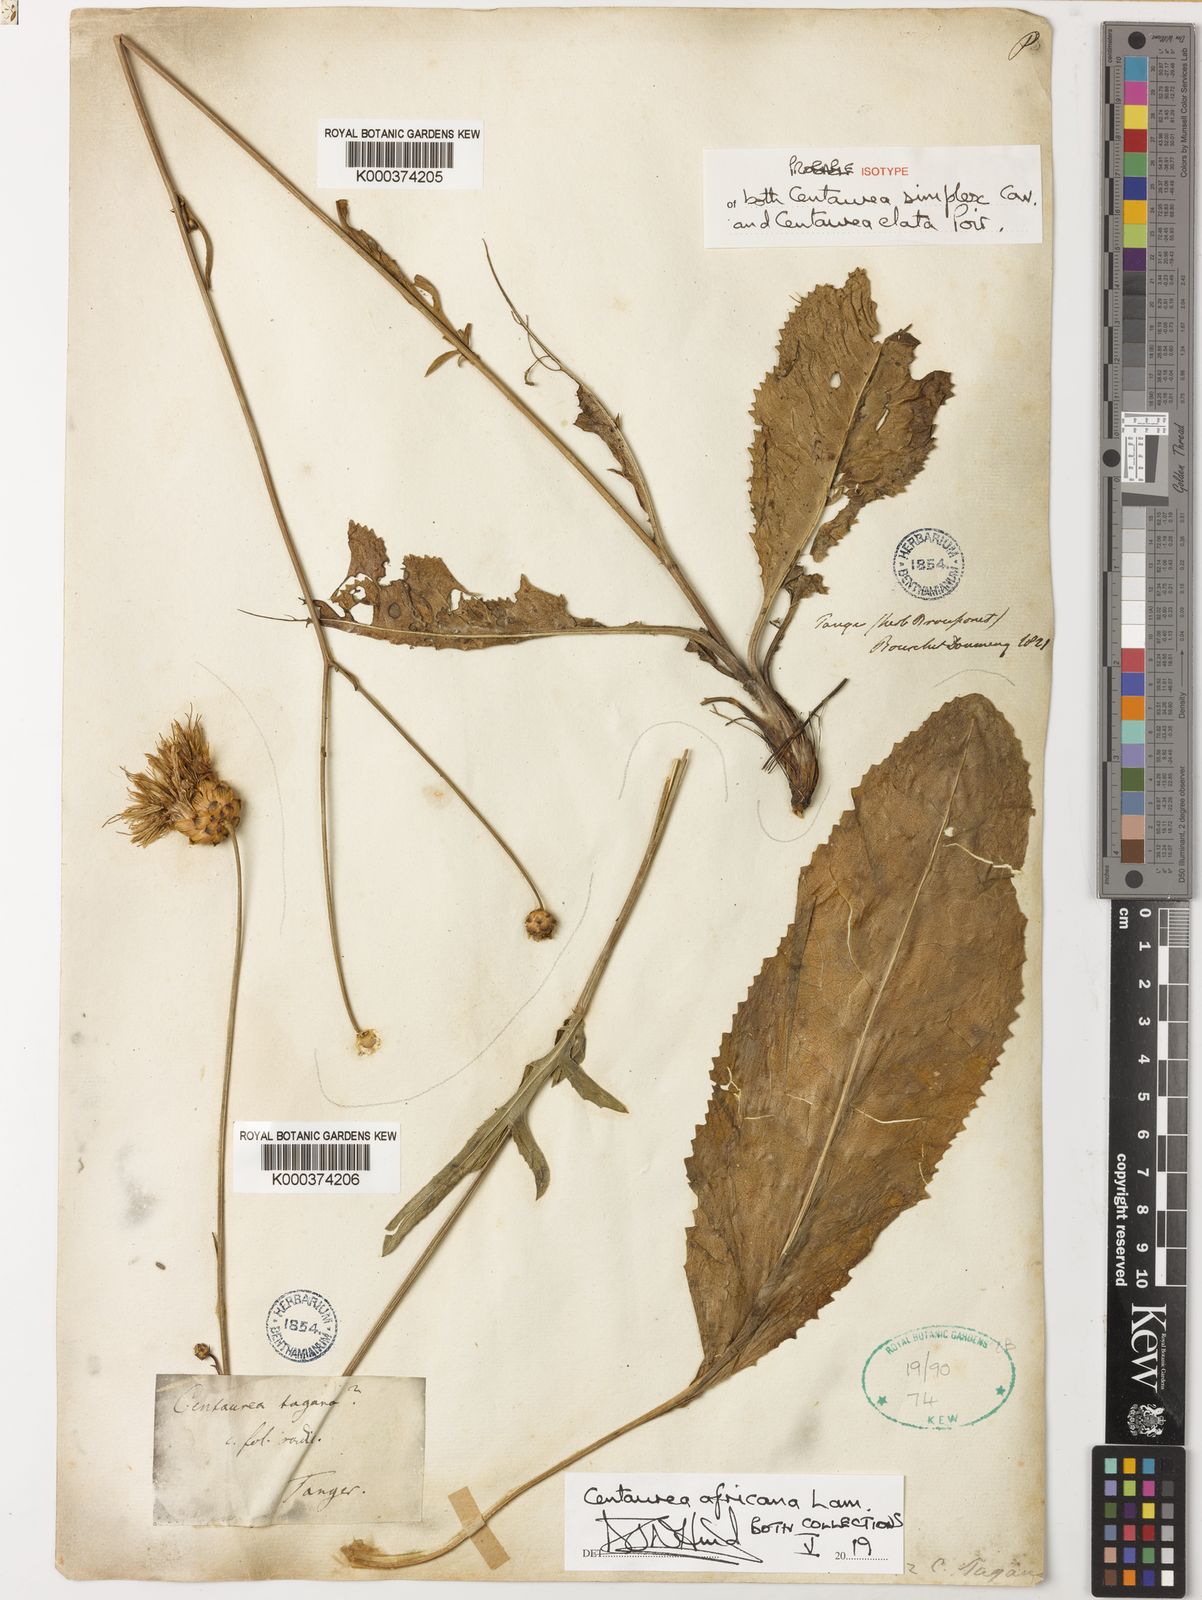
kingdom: Plantae
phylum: Tracheophyta
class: Magnoliopsida
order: Asterales
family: Asteraceae
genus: Rhaponticoides
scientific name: Rhaponticoides africana
